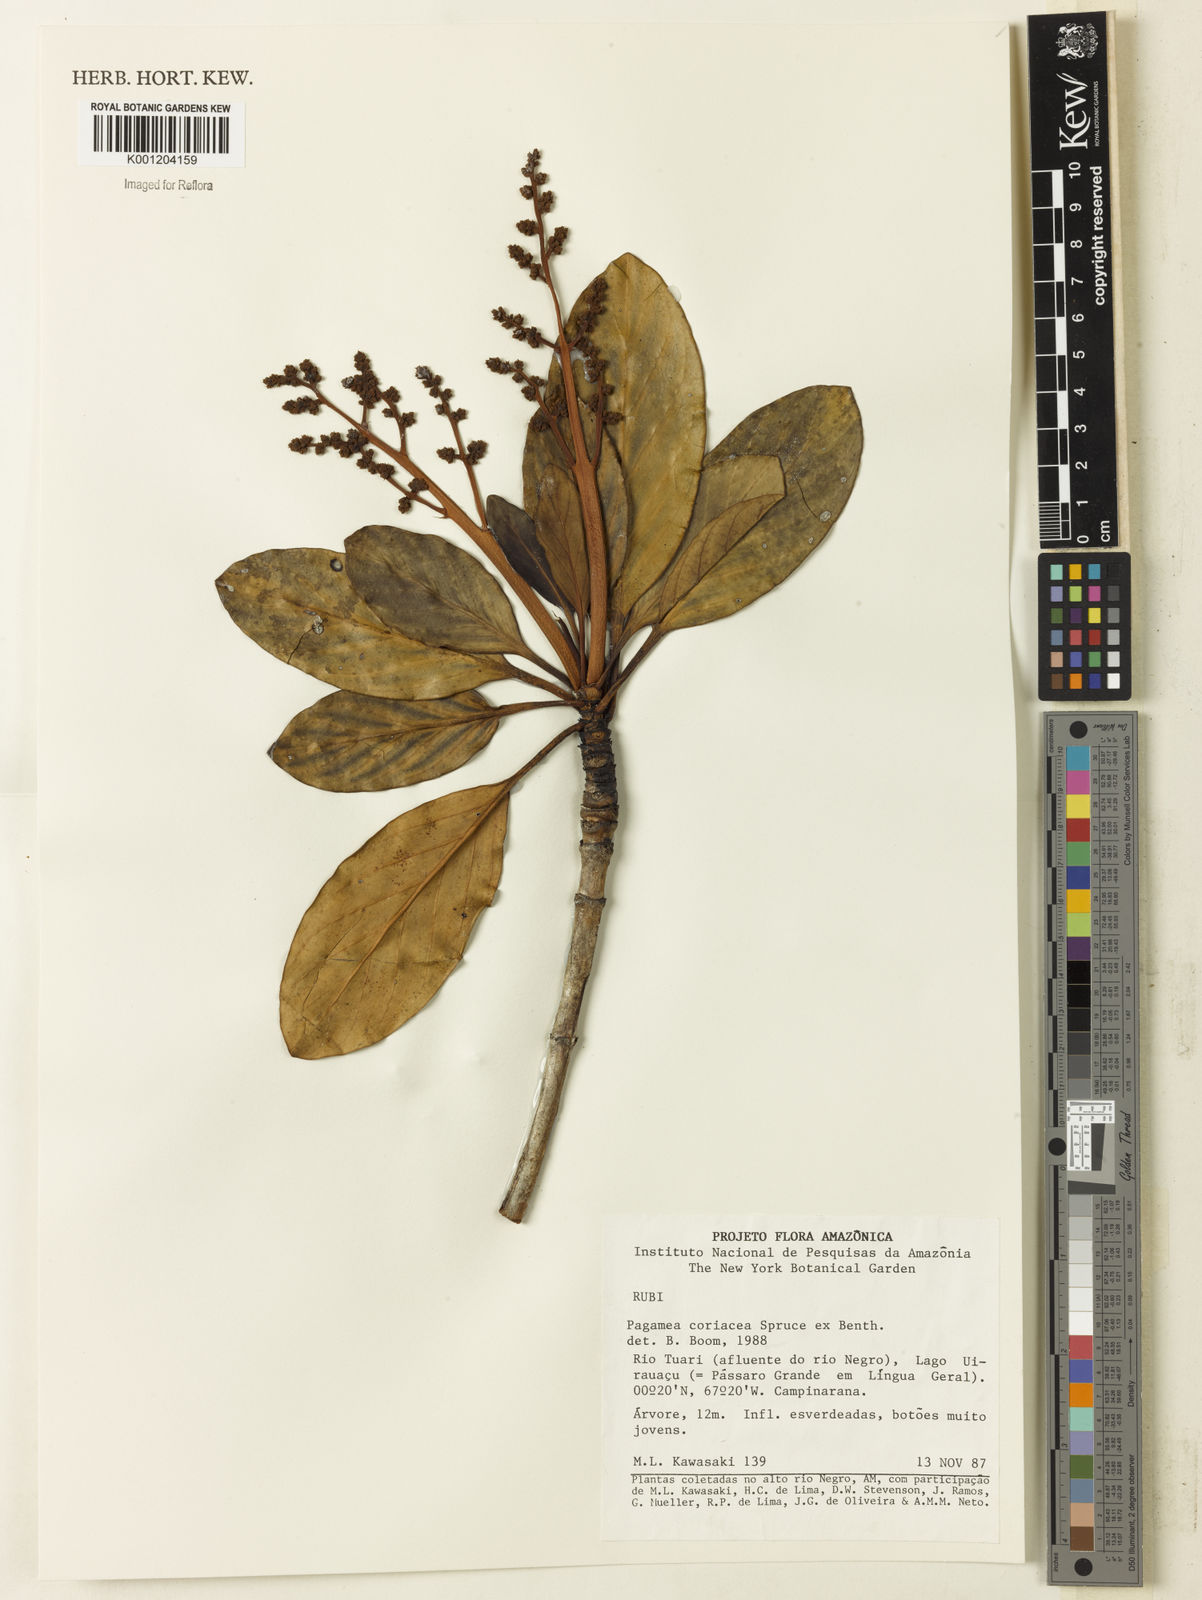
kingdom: Plantae
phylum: Tracheophyta
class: Magnoliopsida
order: Gentianales
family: Rubiaceae
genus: Pagamea
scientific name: Pagamea coriacea
